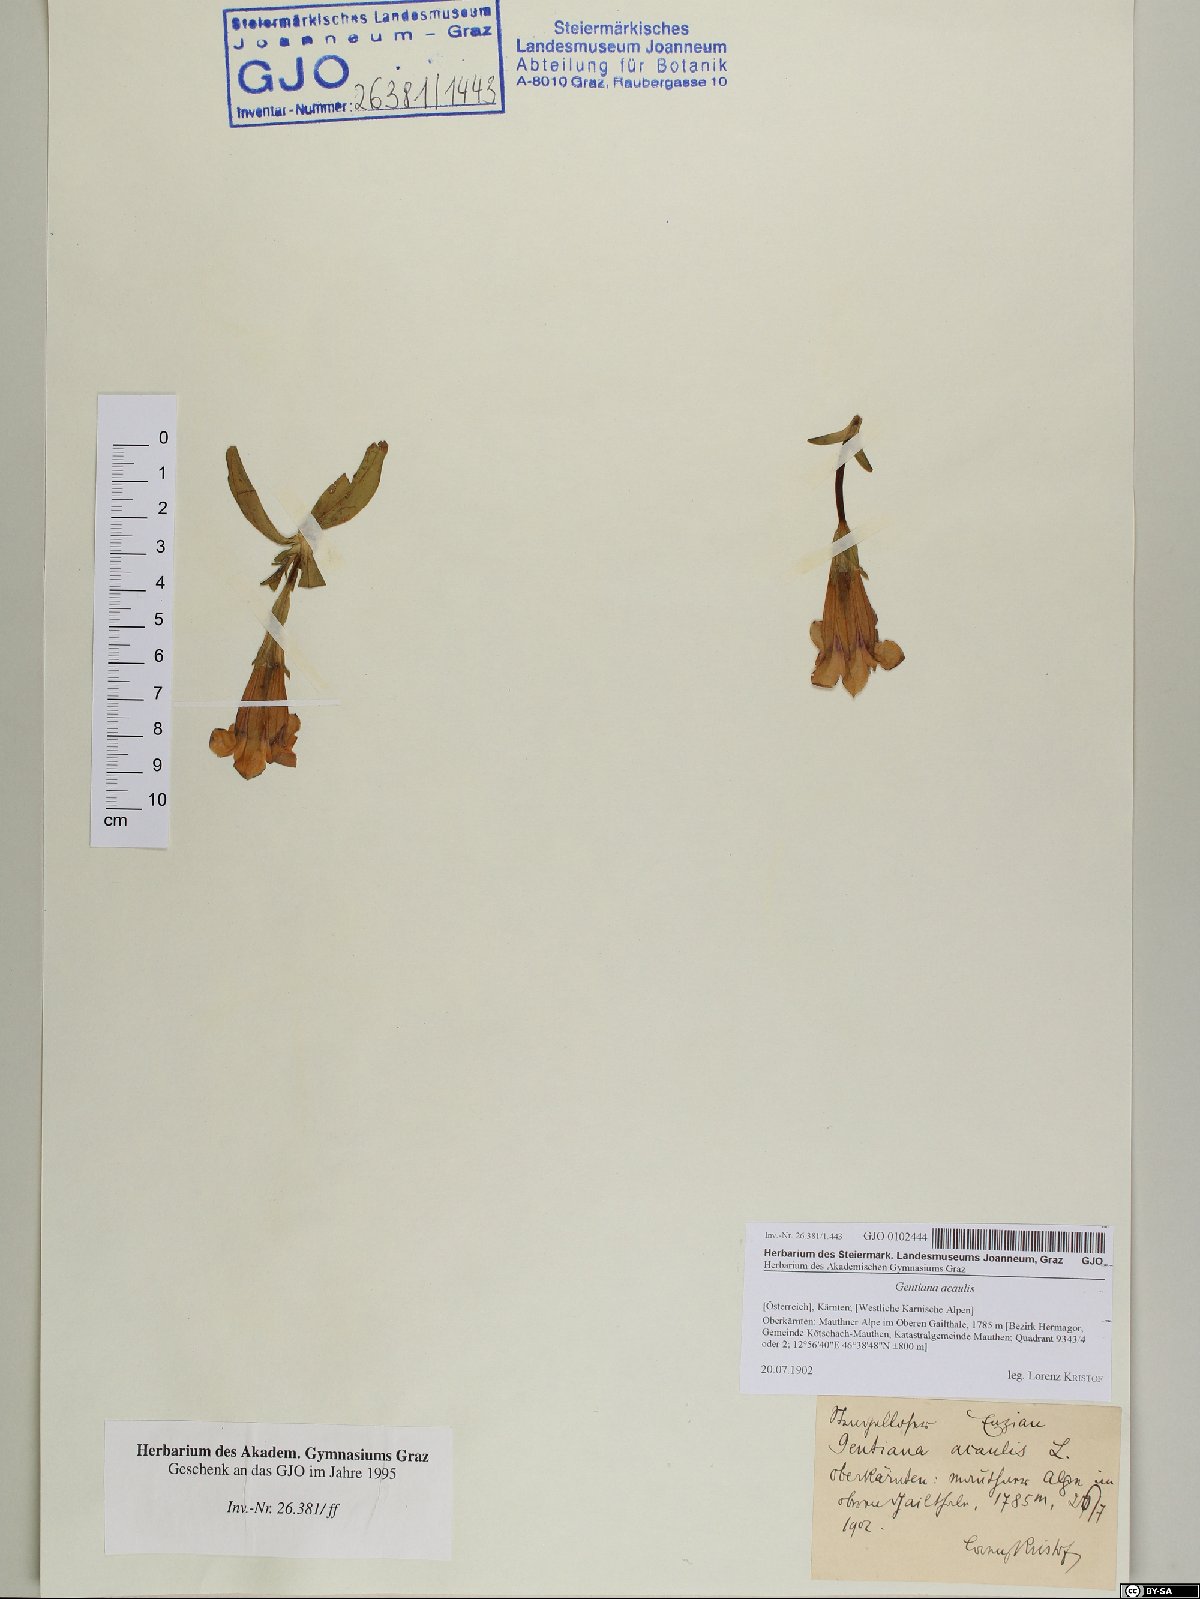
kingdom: Plantae
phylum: Tracheophyta
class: Magnoliopsida
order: Gentianales
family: Gentianaceae
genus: Gentiana
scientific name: Gentiana acaulis
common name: Trumpet gentian
